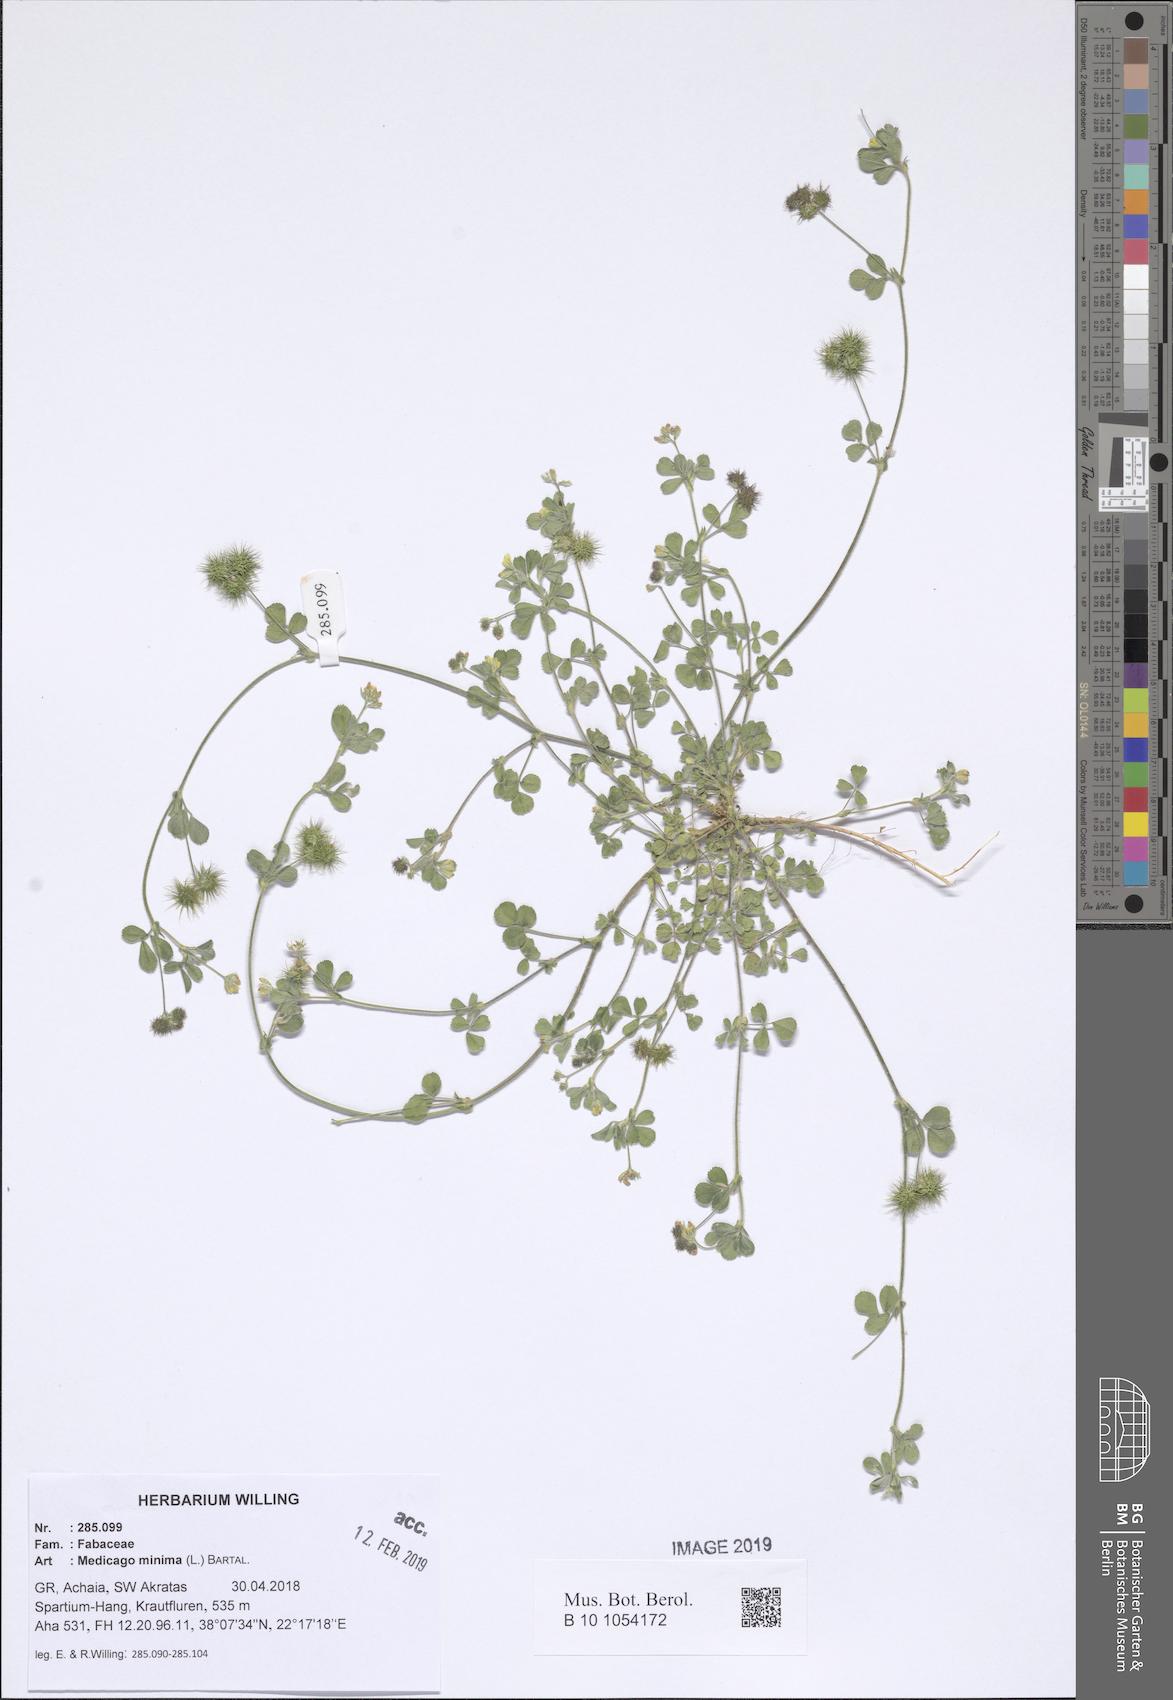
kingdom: Plantae
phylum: Tracheophyta
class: Magnoliopsida
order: Fabales
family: Fabaceae
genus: Medicago
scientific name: Medicago minima
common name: Little bur-clover
